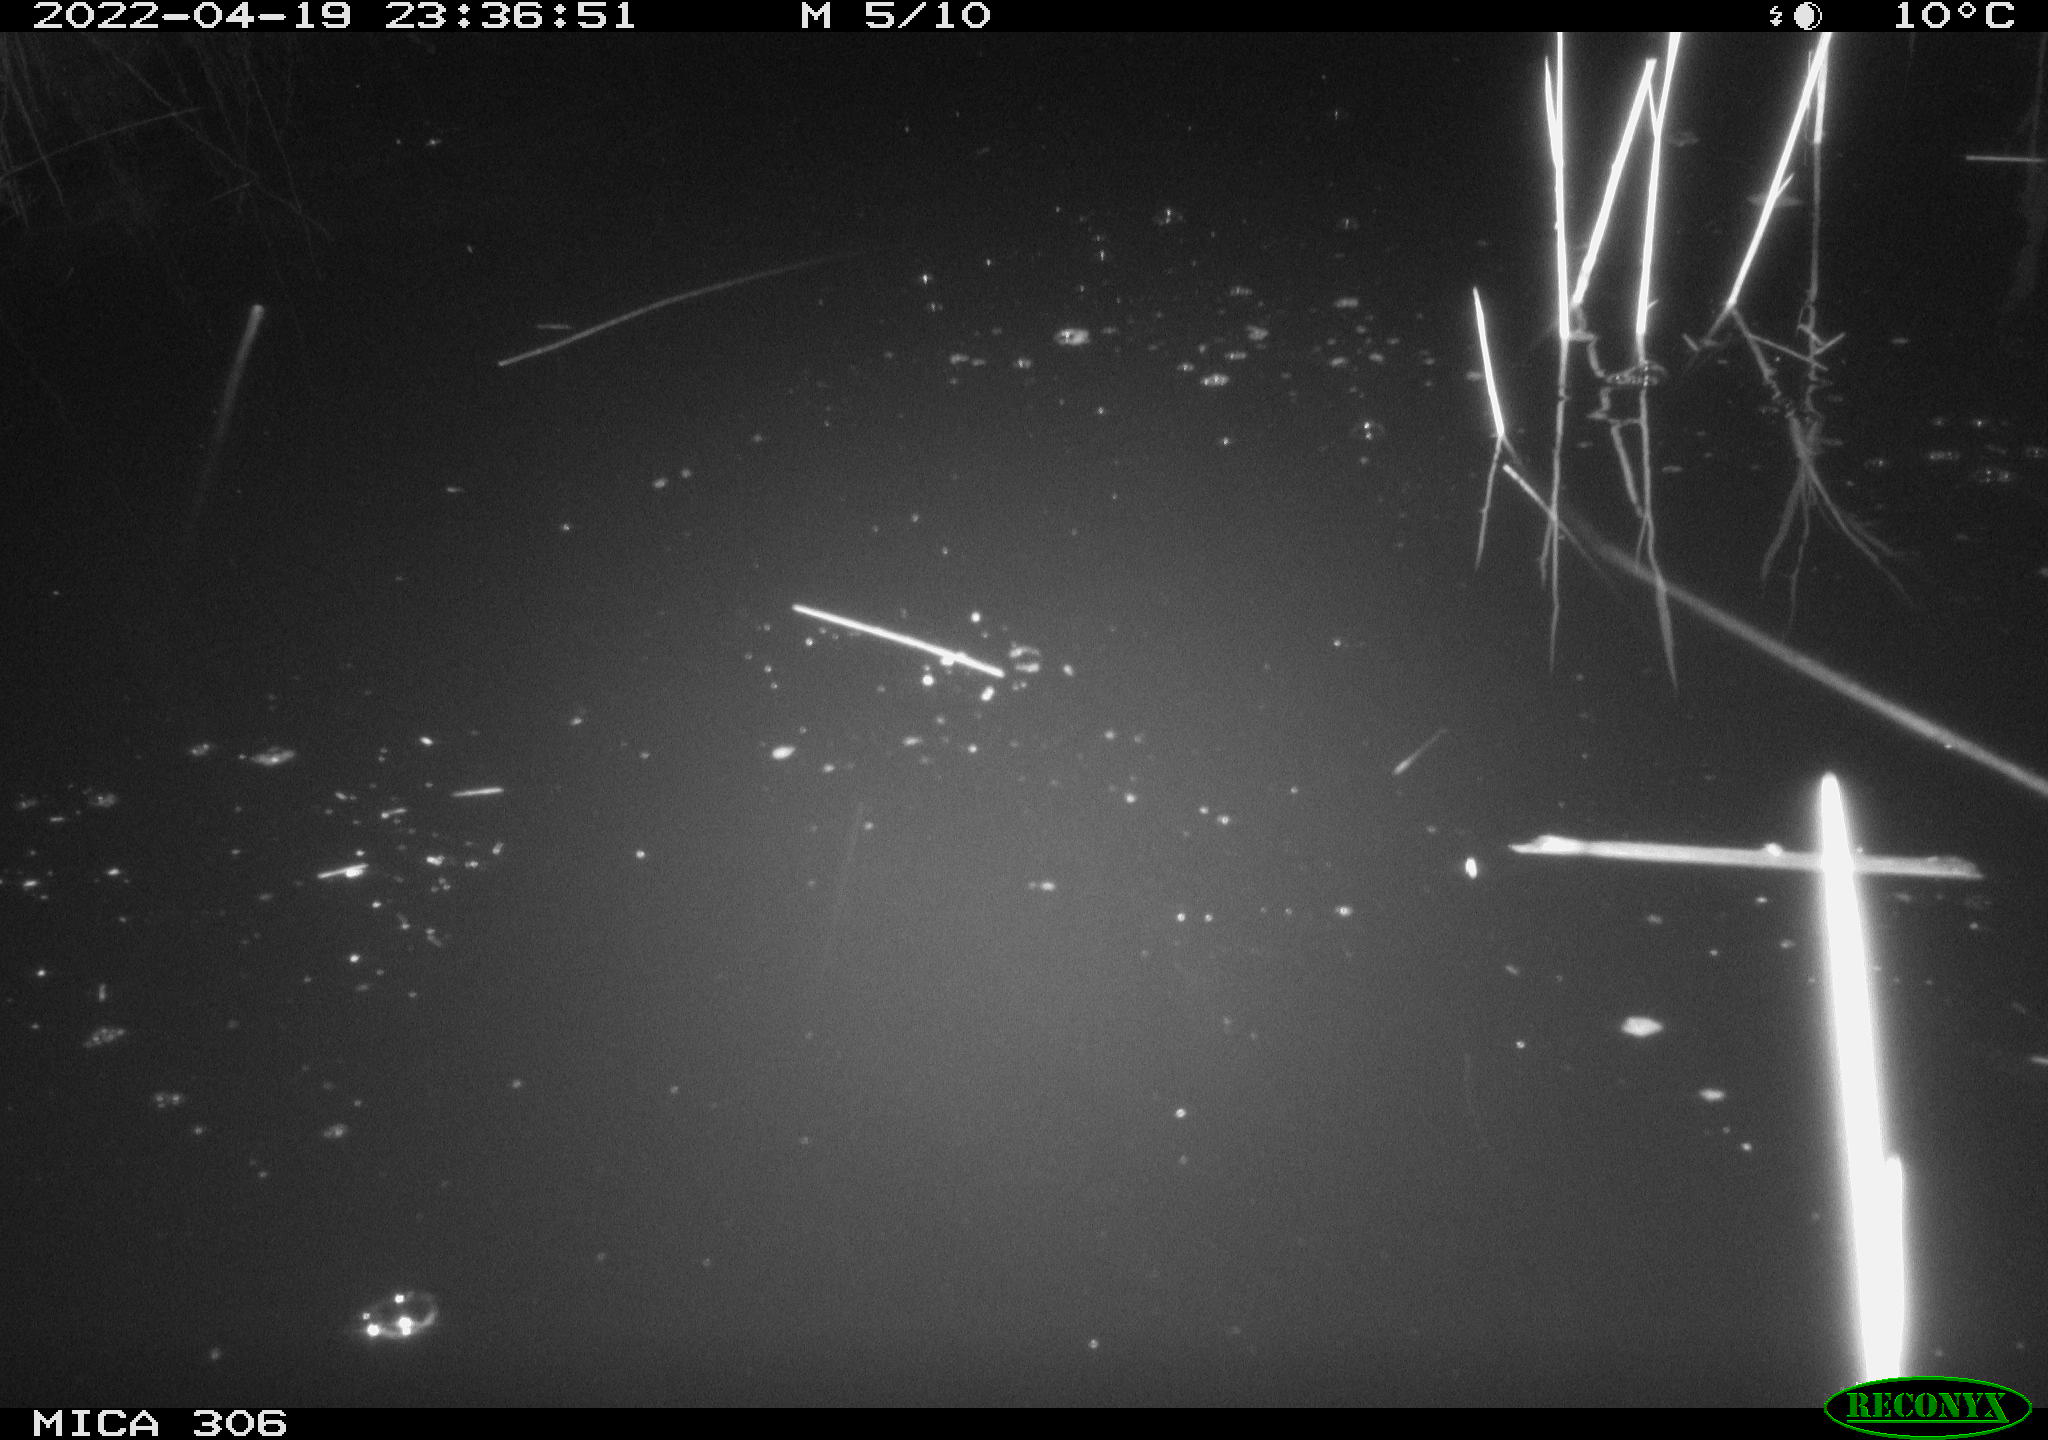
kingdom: Animalia
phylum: Chordata
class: Aves
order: Gruiformes
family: Rallidae
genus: Gallinula
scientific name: Gallinula chloropus
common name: Common moorhen
